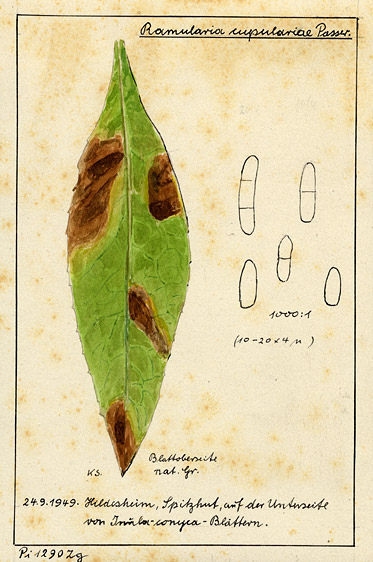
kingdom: Plantae
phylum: Tracheophyta
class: Magnoliopsida
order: Asterales
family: Asteraceae
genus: Pentanema
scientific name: Pentanema squarrosum
